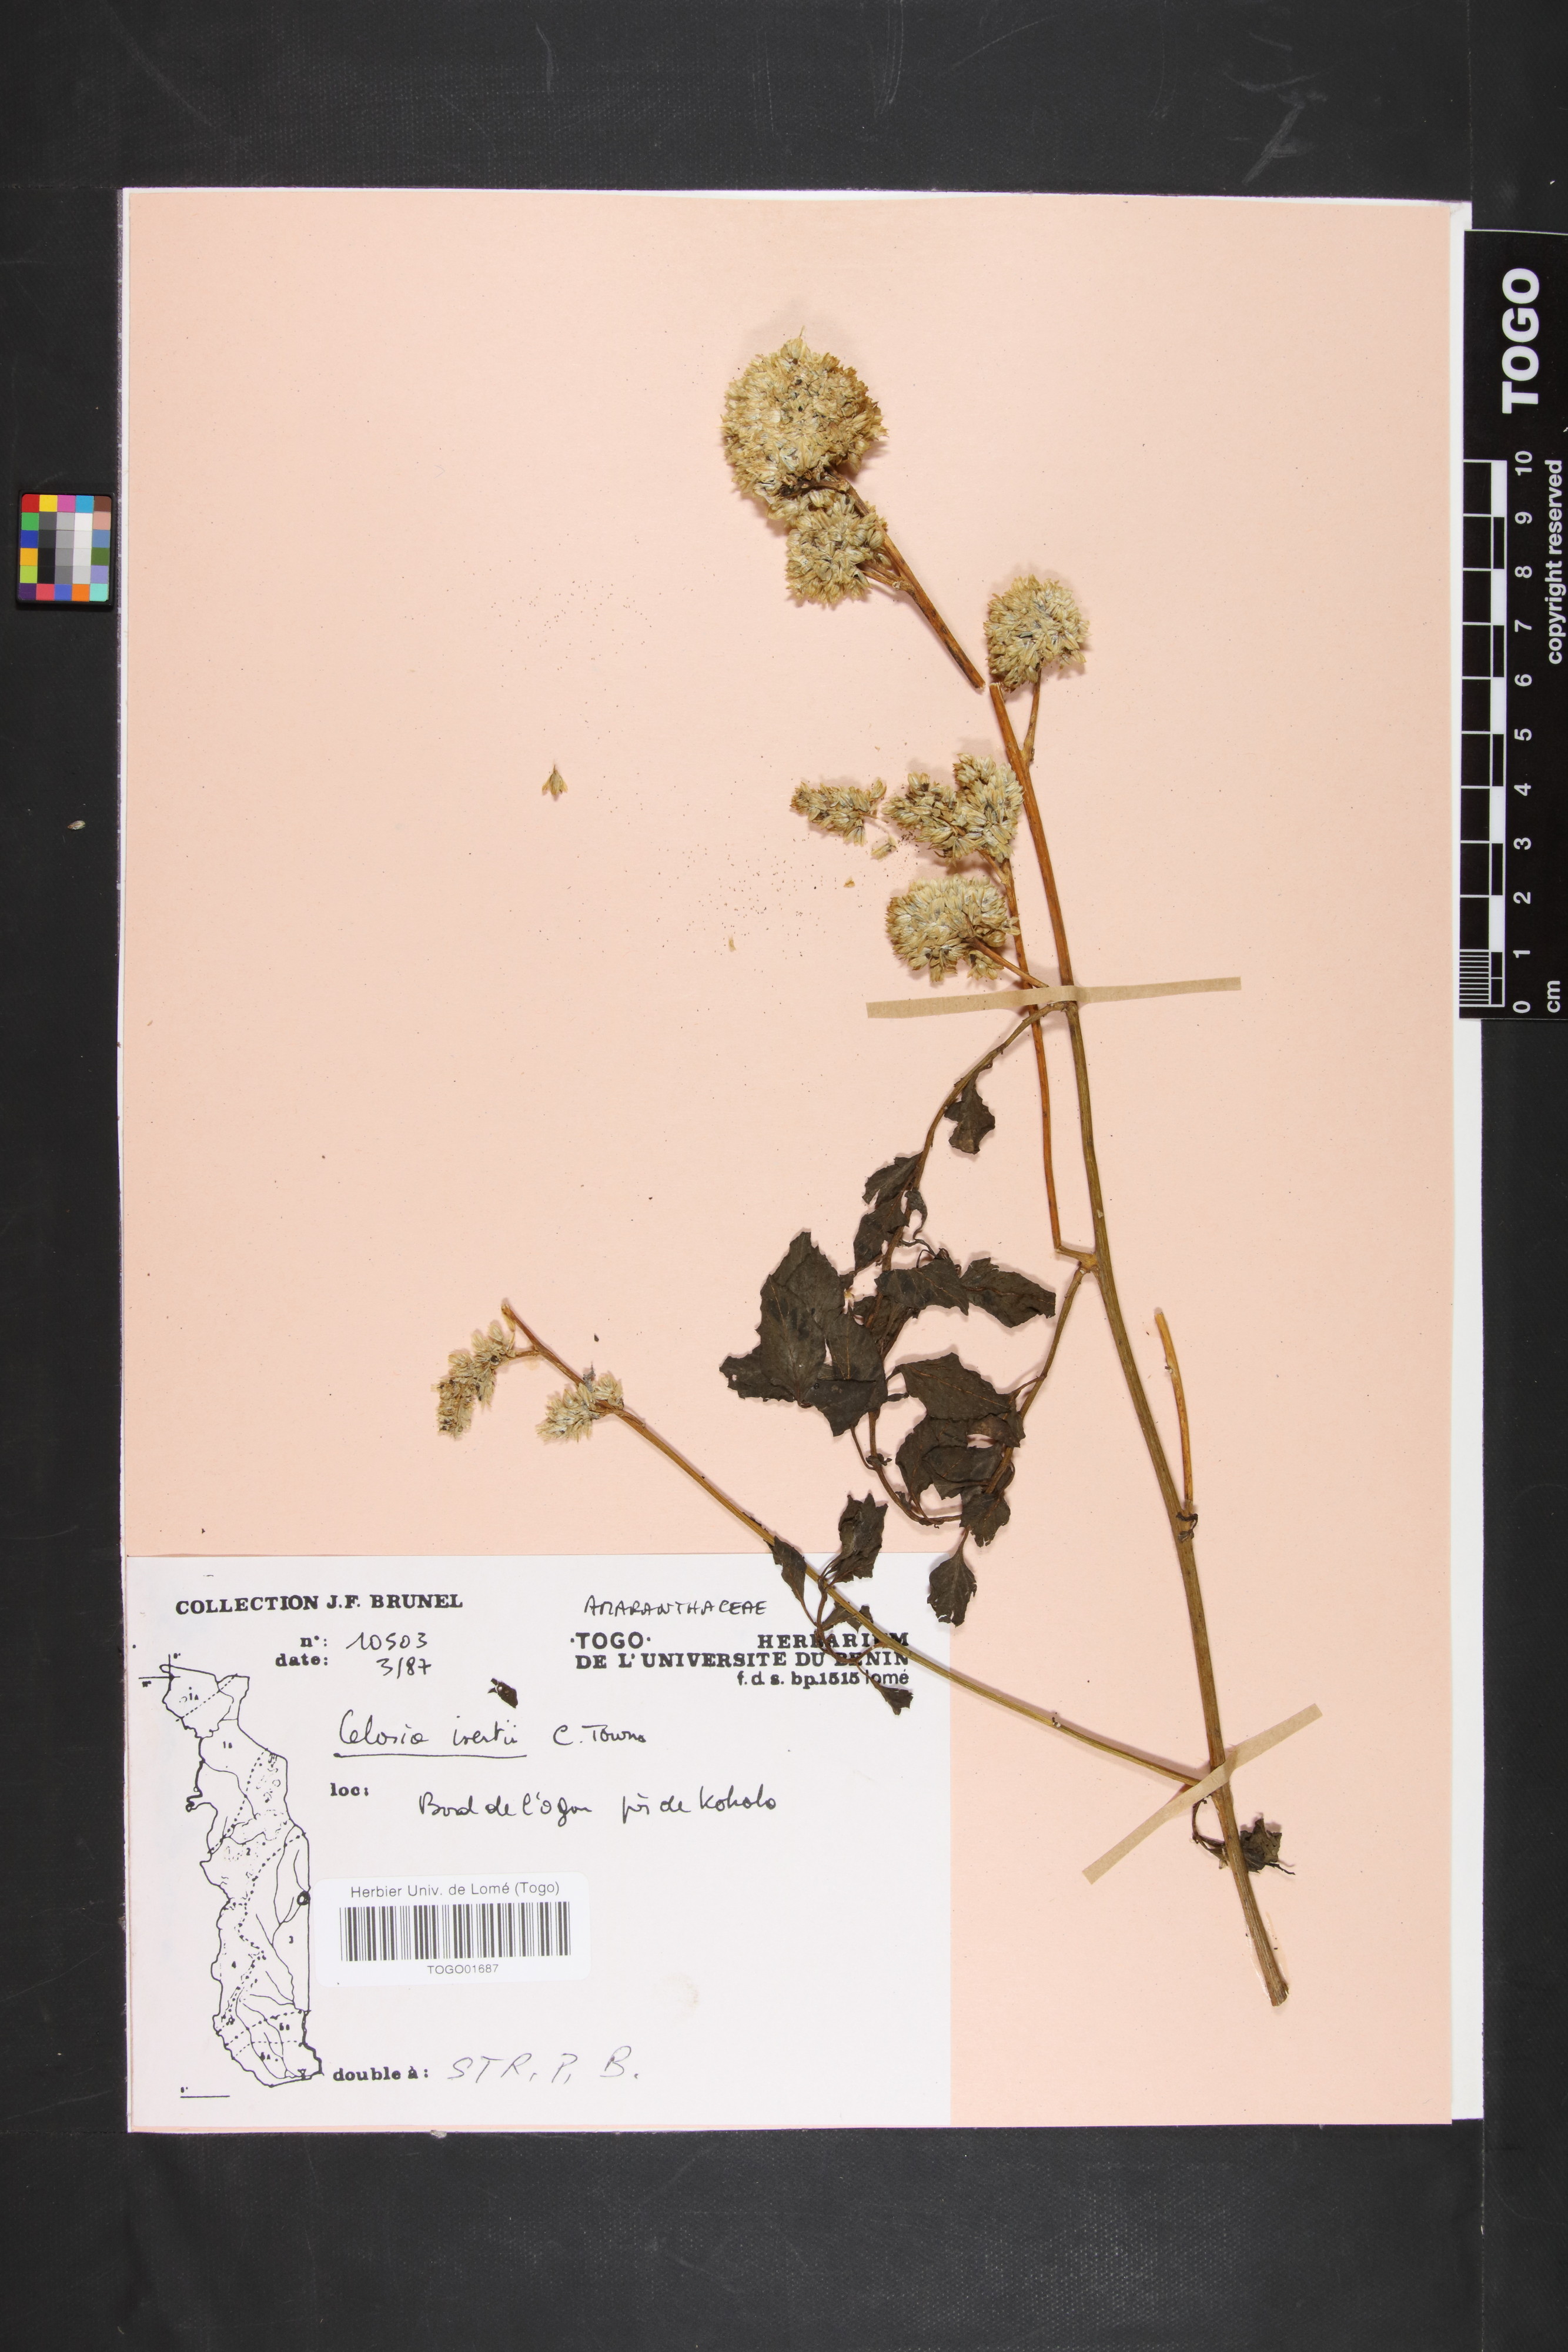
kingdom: Plantae
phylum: Tracheophyta
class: Magnoliopsida
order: Caryophyllales
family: Amaranthaceae
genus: Celosia
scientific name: Celosia isertii
